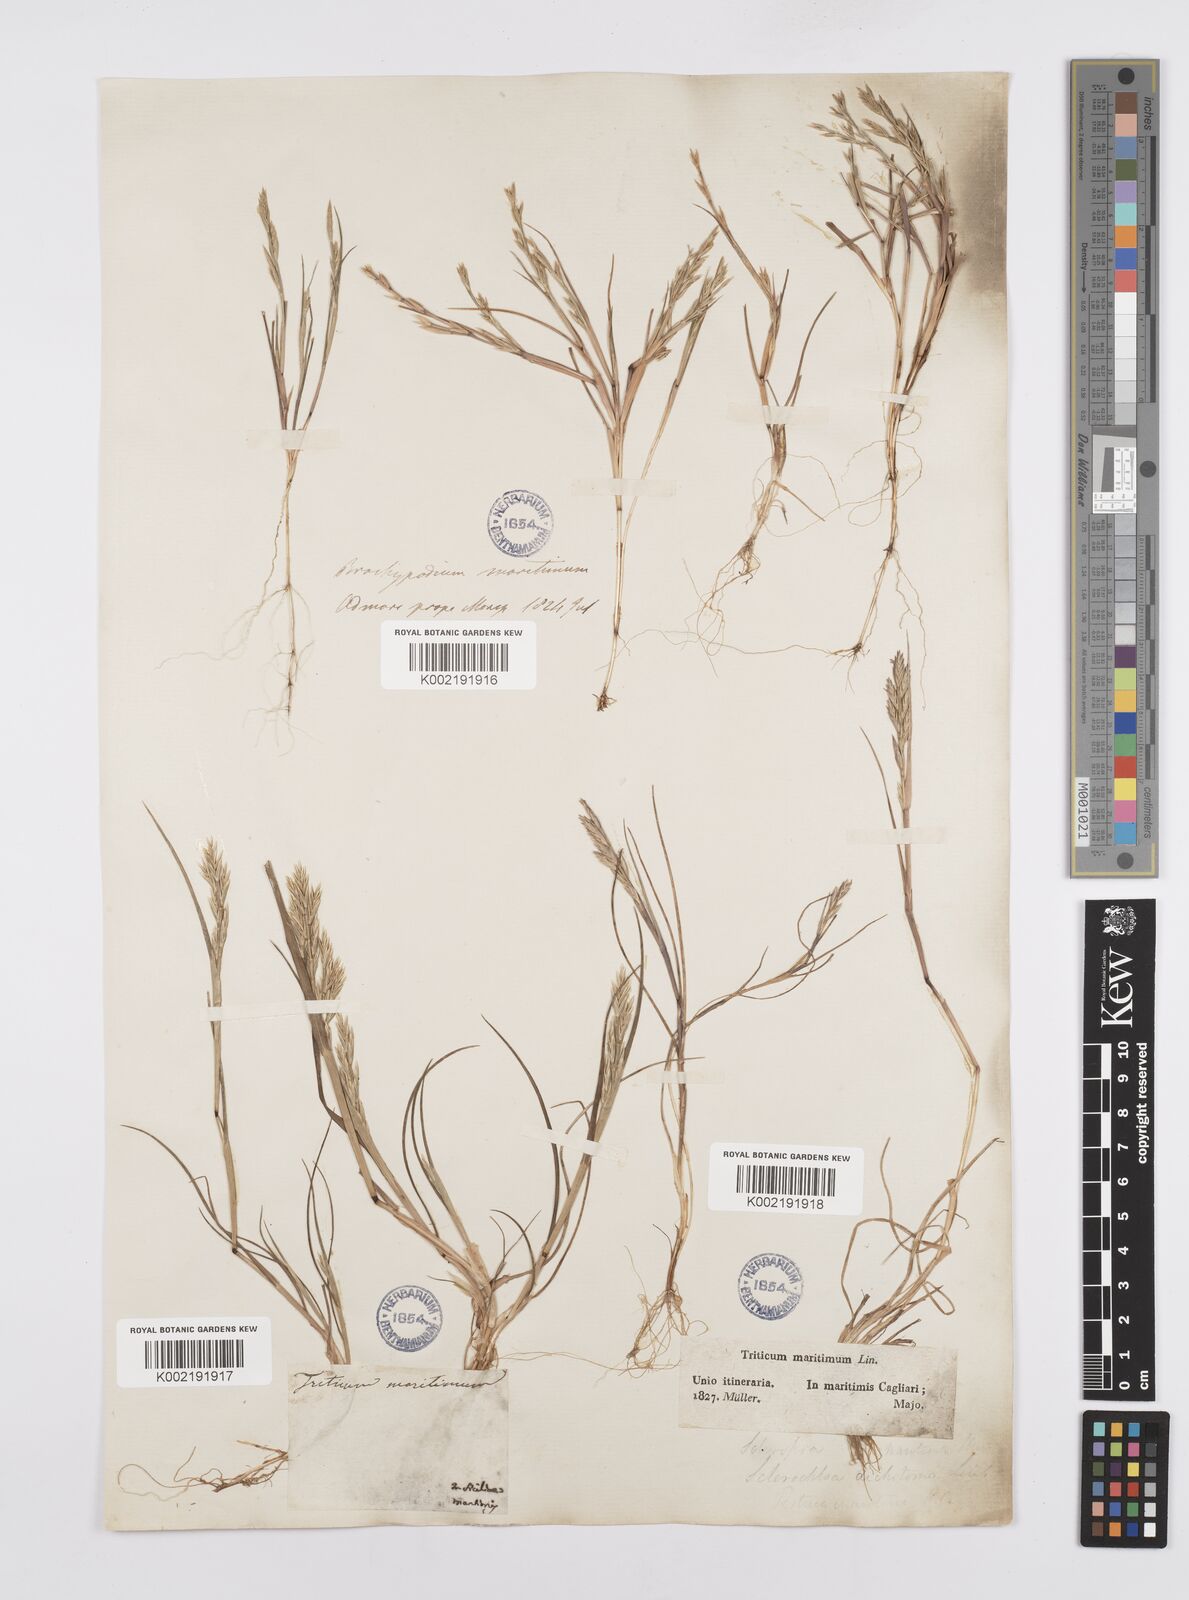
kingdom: Plantae
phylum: Tracheophyta
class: Liliopsida
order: Poales
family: Poaceae
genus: Cutandia
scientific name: Cutandia maritima
